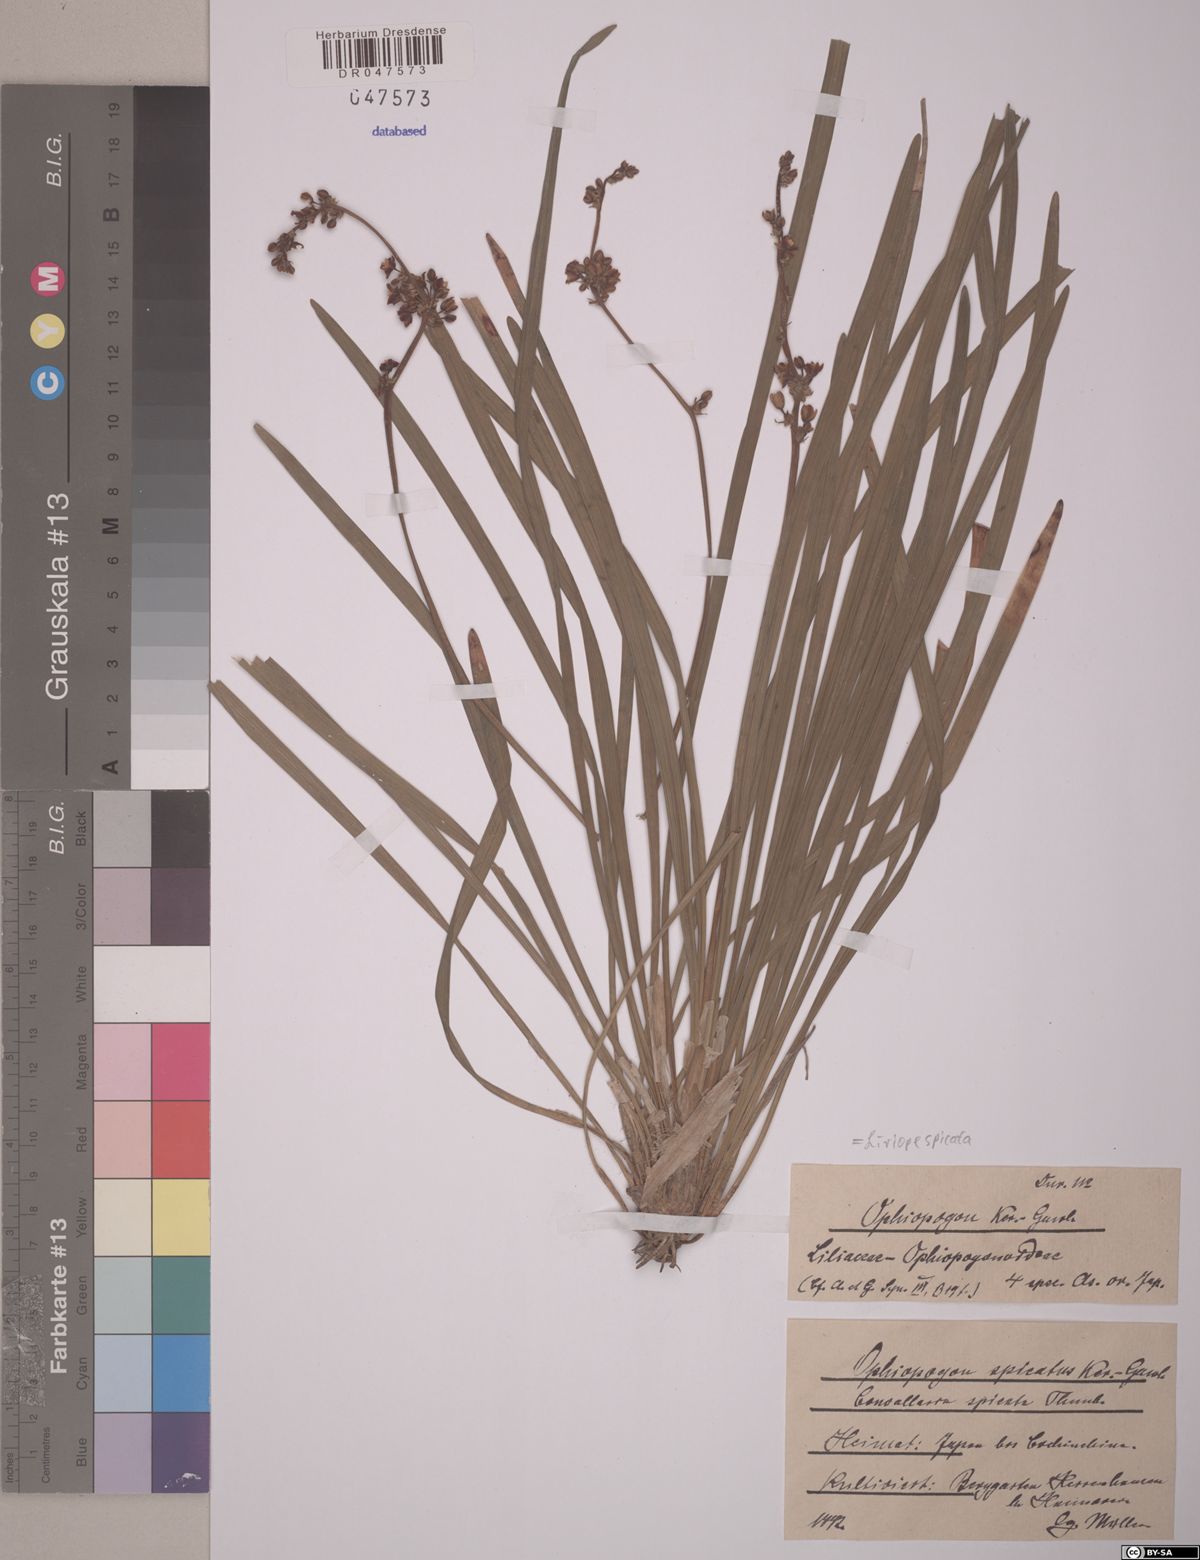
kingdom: Plantae
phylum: Tracheophyta
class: Liliopsida
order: Asparagales
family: Asparagaceae
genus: Liriope
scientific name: Liriope spicata
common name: Creeping liriope
